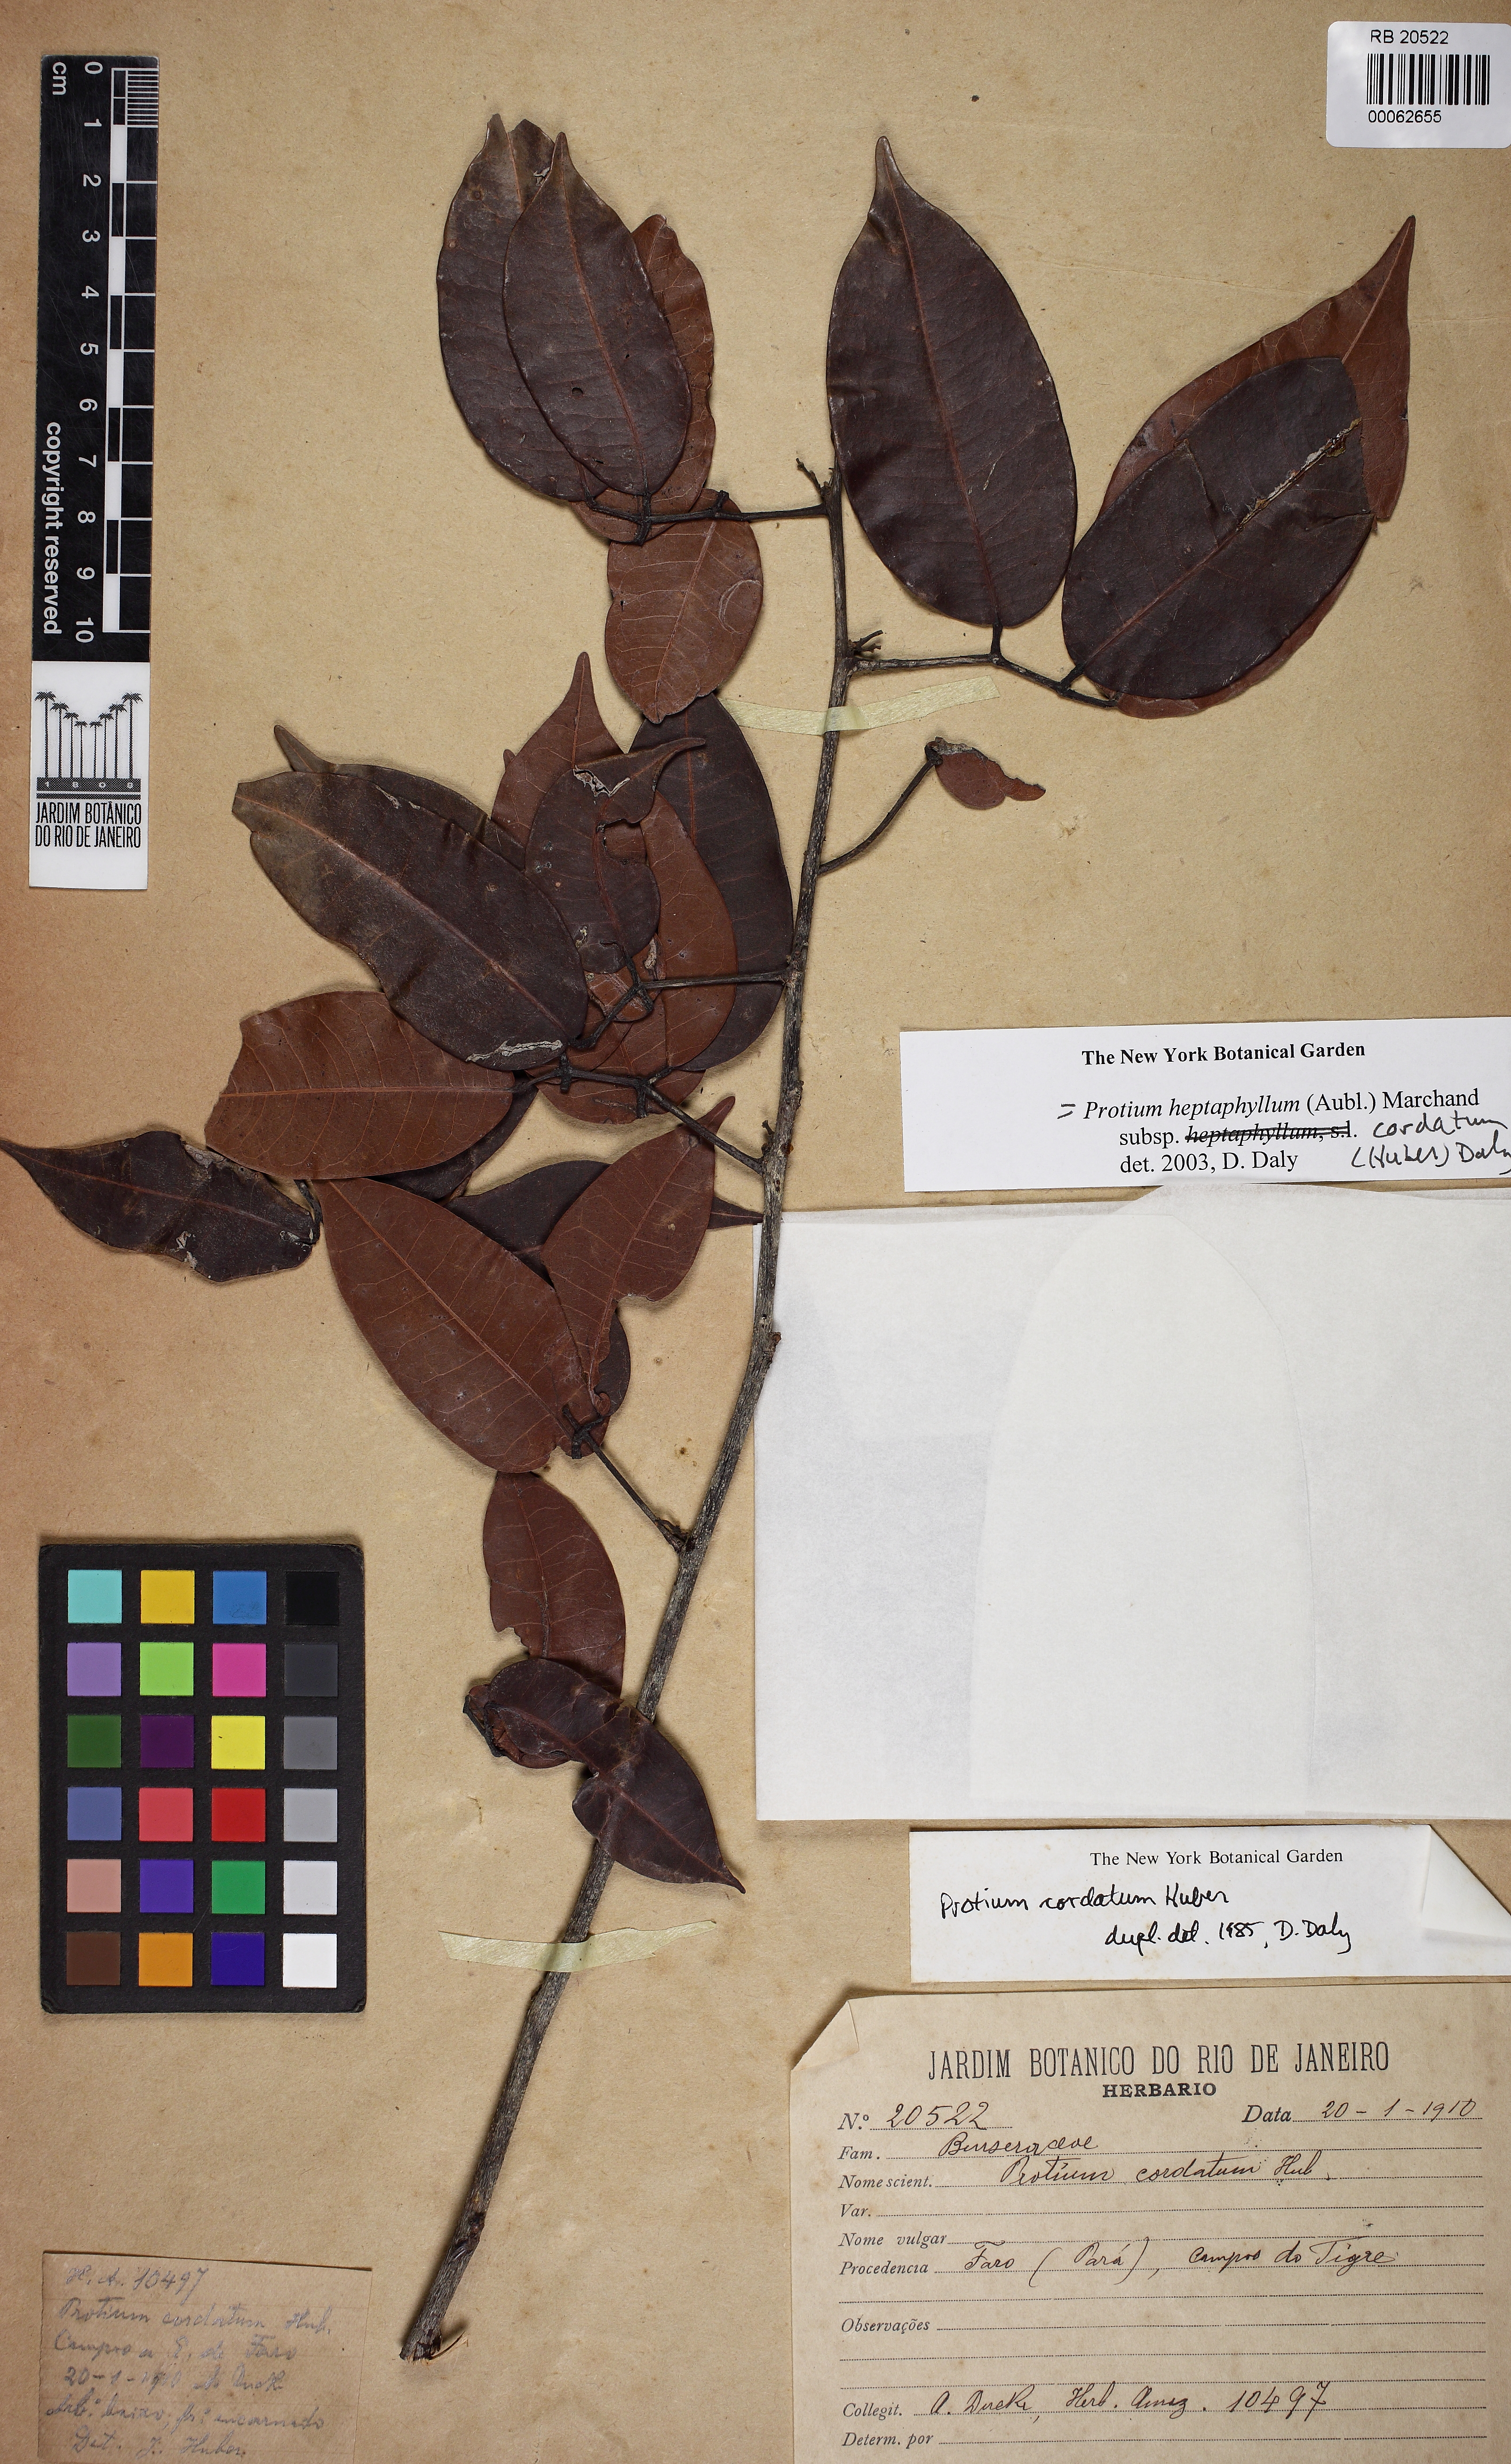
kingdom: Plantae
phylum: Tracheophyta
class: Magnoliopsida
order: Sapindales
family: Burseraceae
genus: Protium
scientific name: Protium heptaphyllum
